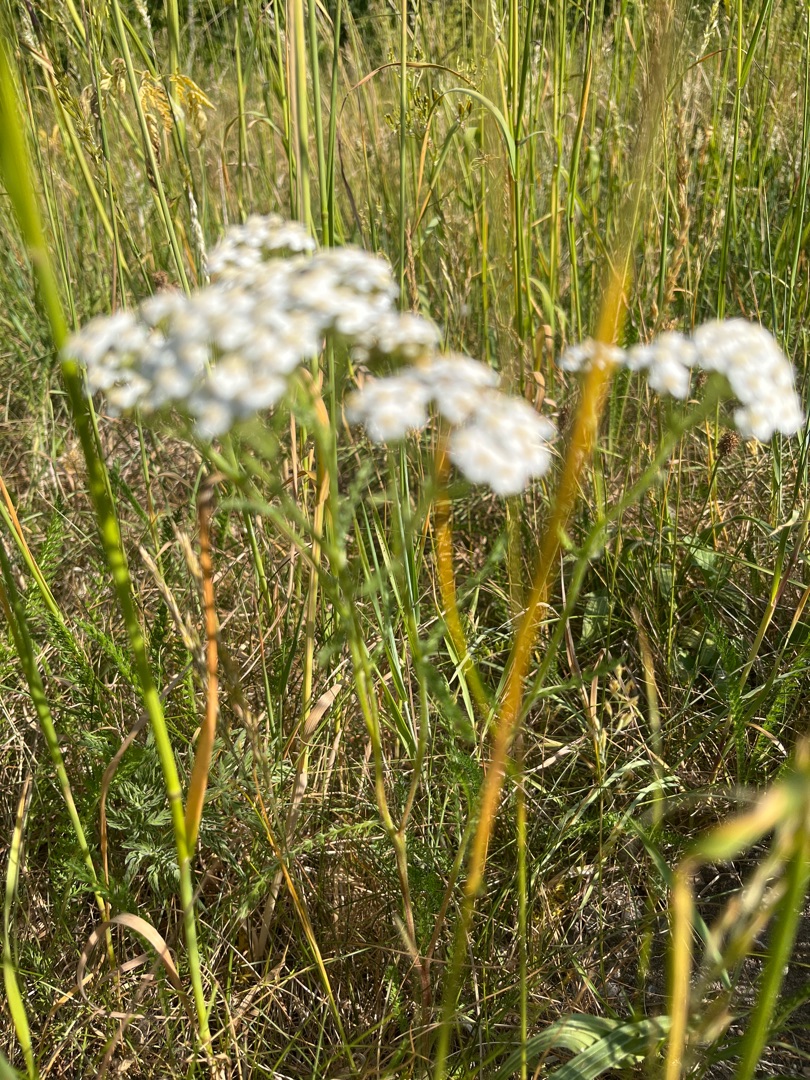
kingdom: Plantae
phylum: Tracheophyta
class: Magnoliopsida
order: Asterales
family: Asteraceae
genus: Achillea
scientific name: Achillea millefolium
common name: Almindelig røllike
